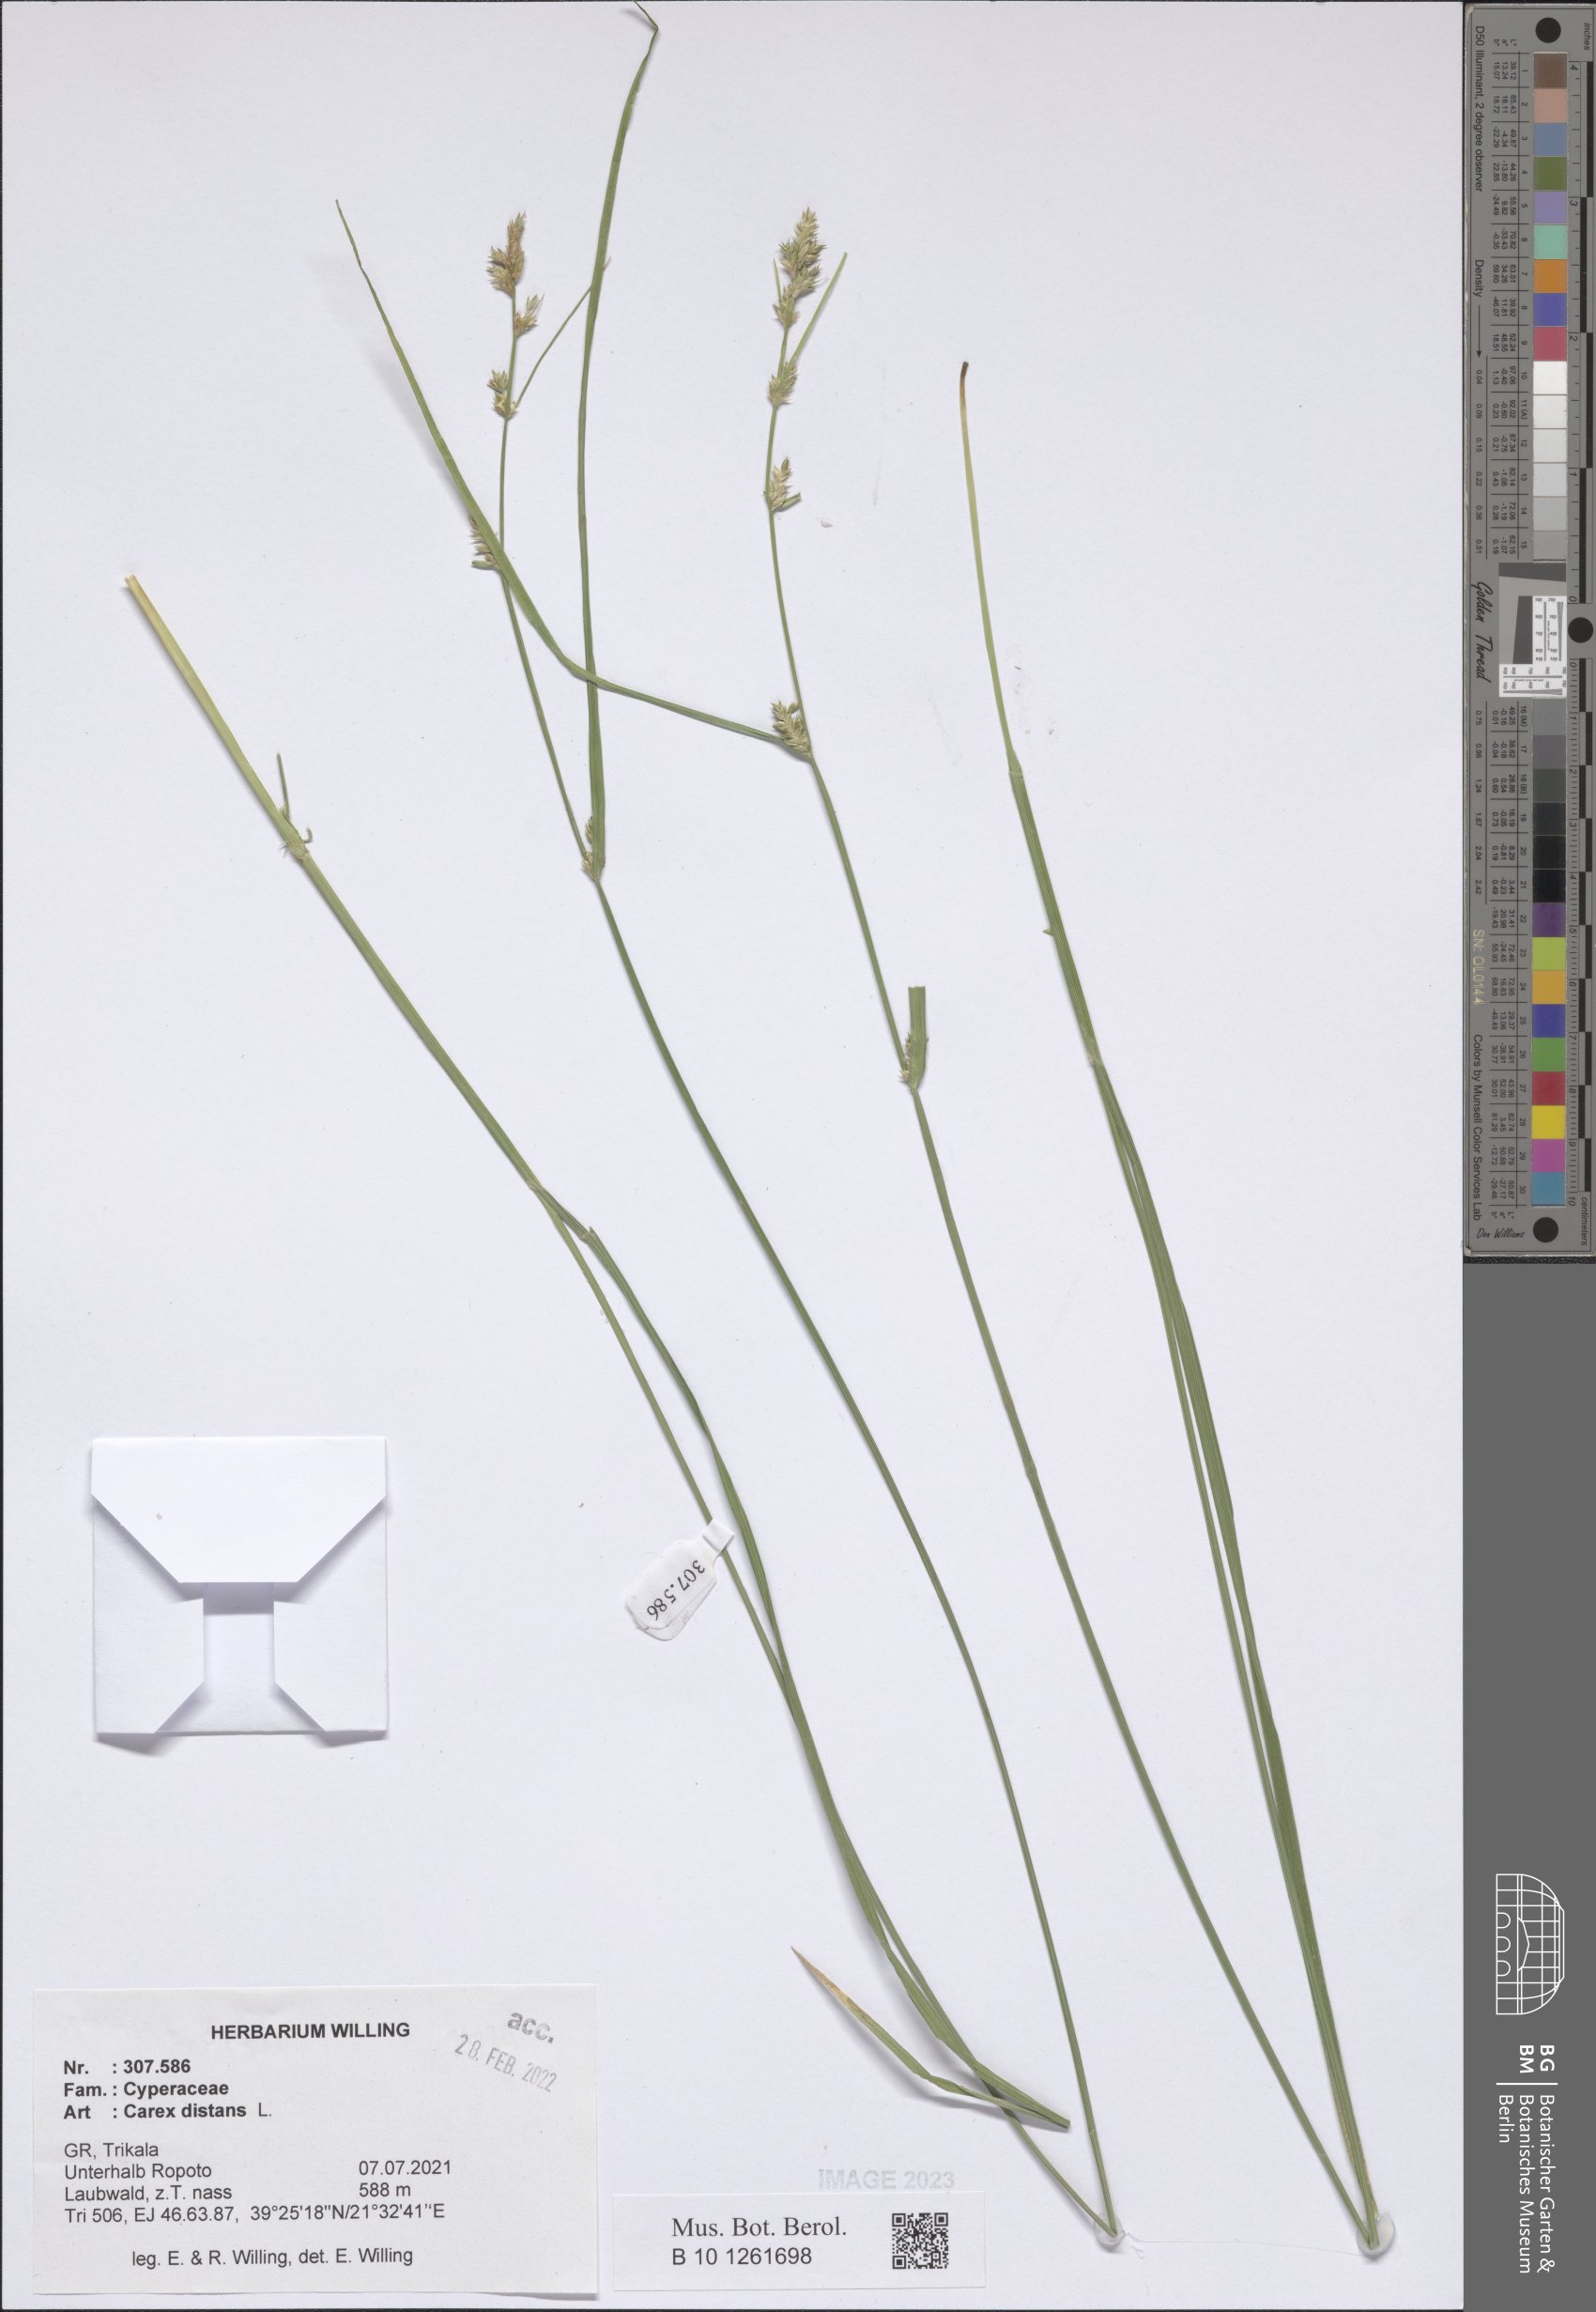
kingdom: Plantae
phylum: Tracheophyta
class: Liliopsida
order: Poales
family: Cyperaceae
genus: Carex
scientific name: Carex distans
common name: Distant sedge
